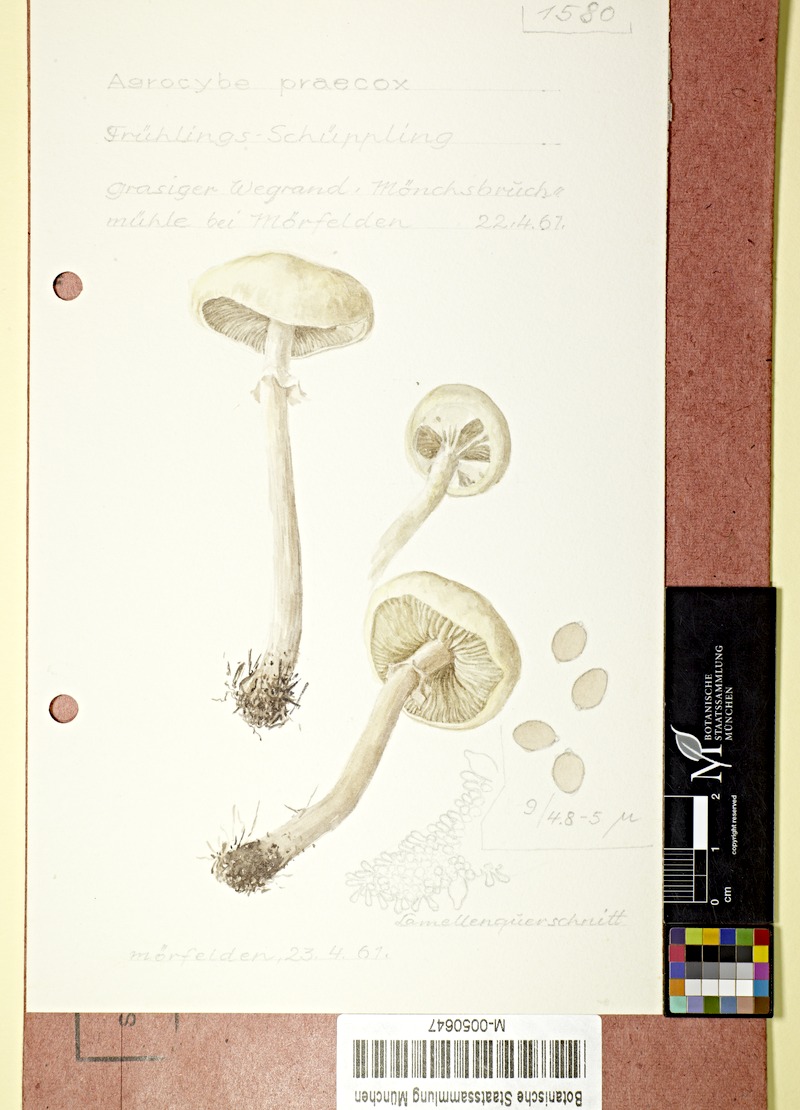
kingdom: Fungi
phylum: Basidiomycota
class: Agaricomycetes
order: Agaricales
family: Strophariaceae
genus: Agrocybe
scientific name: Agrocybe praecox
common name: Spring fieldcap
